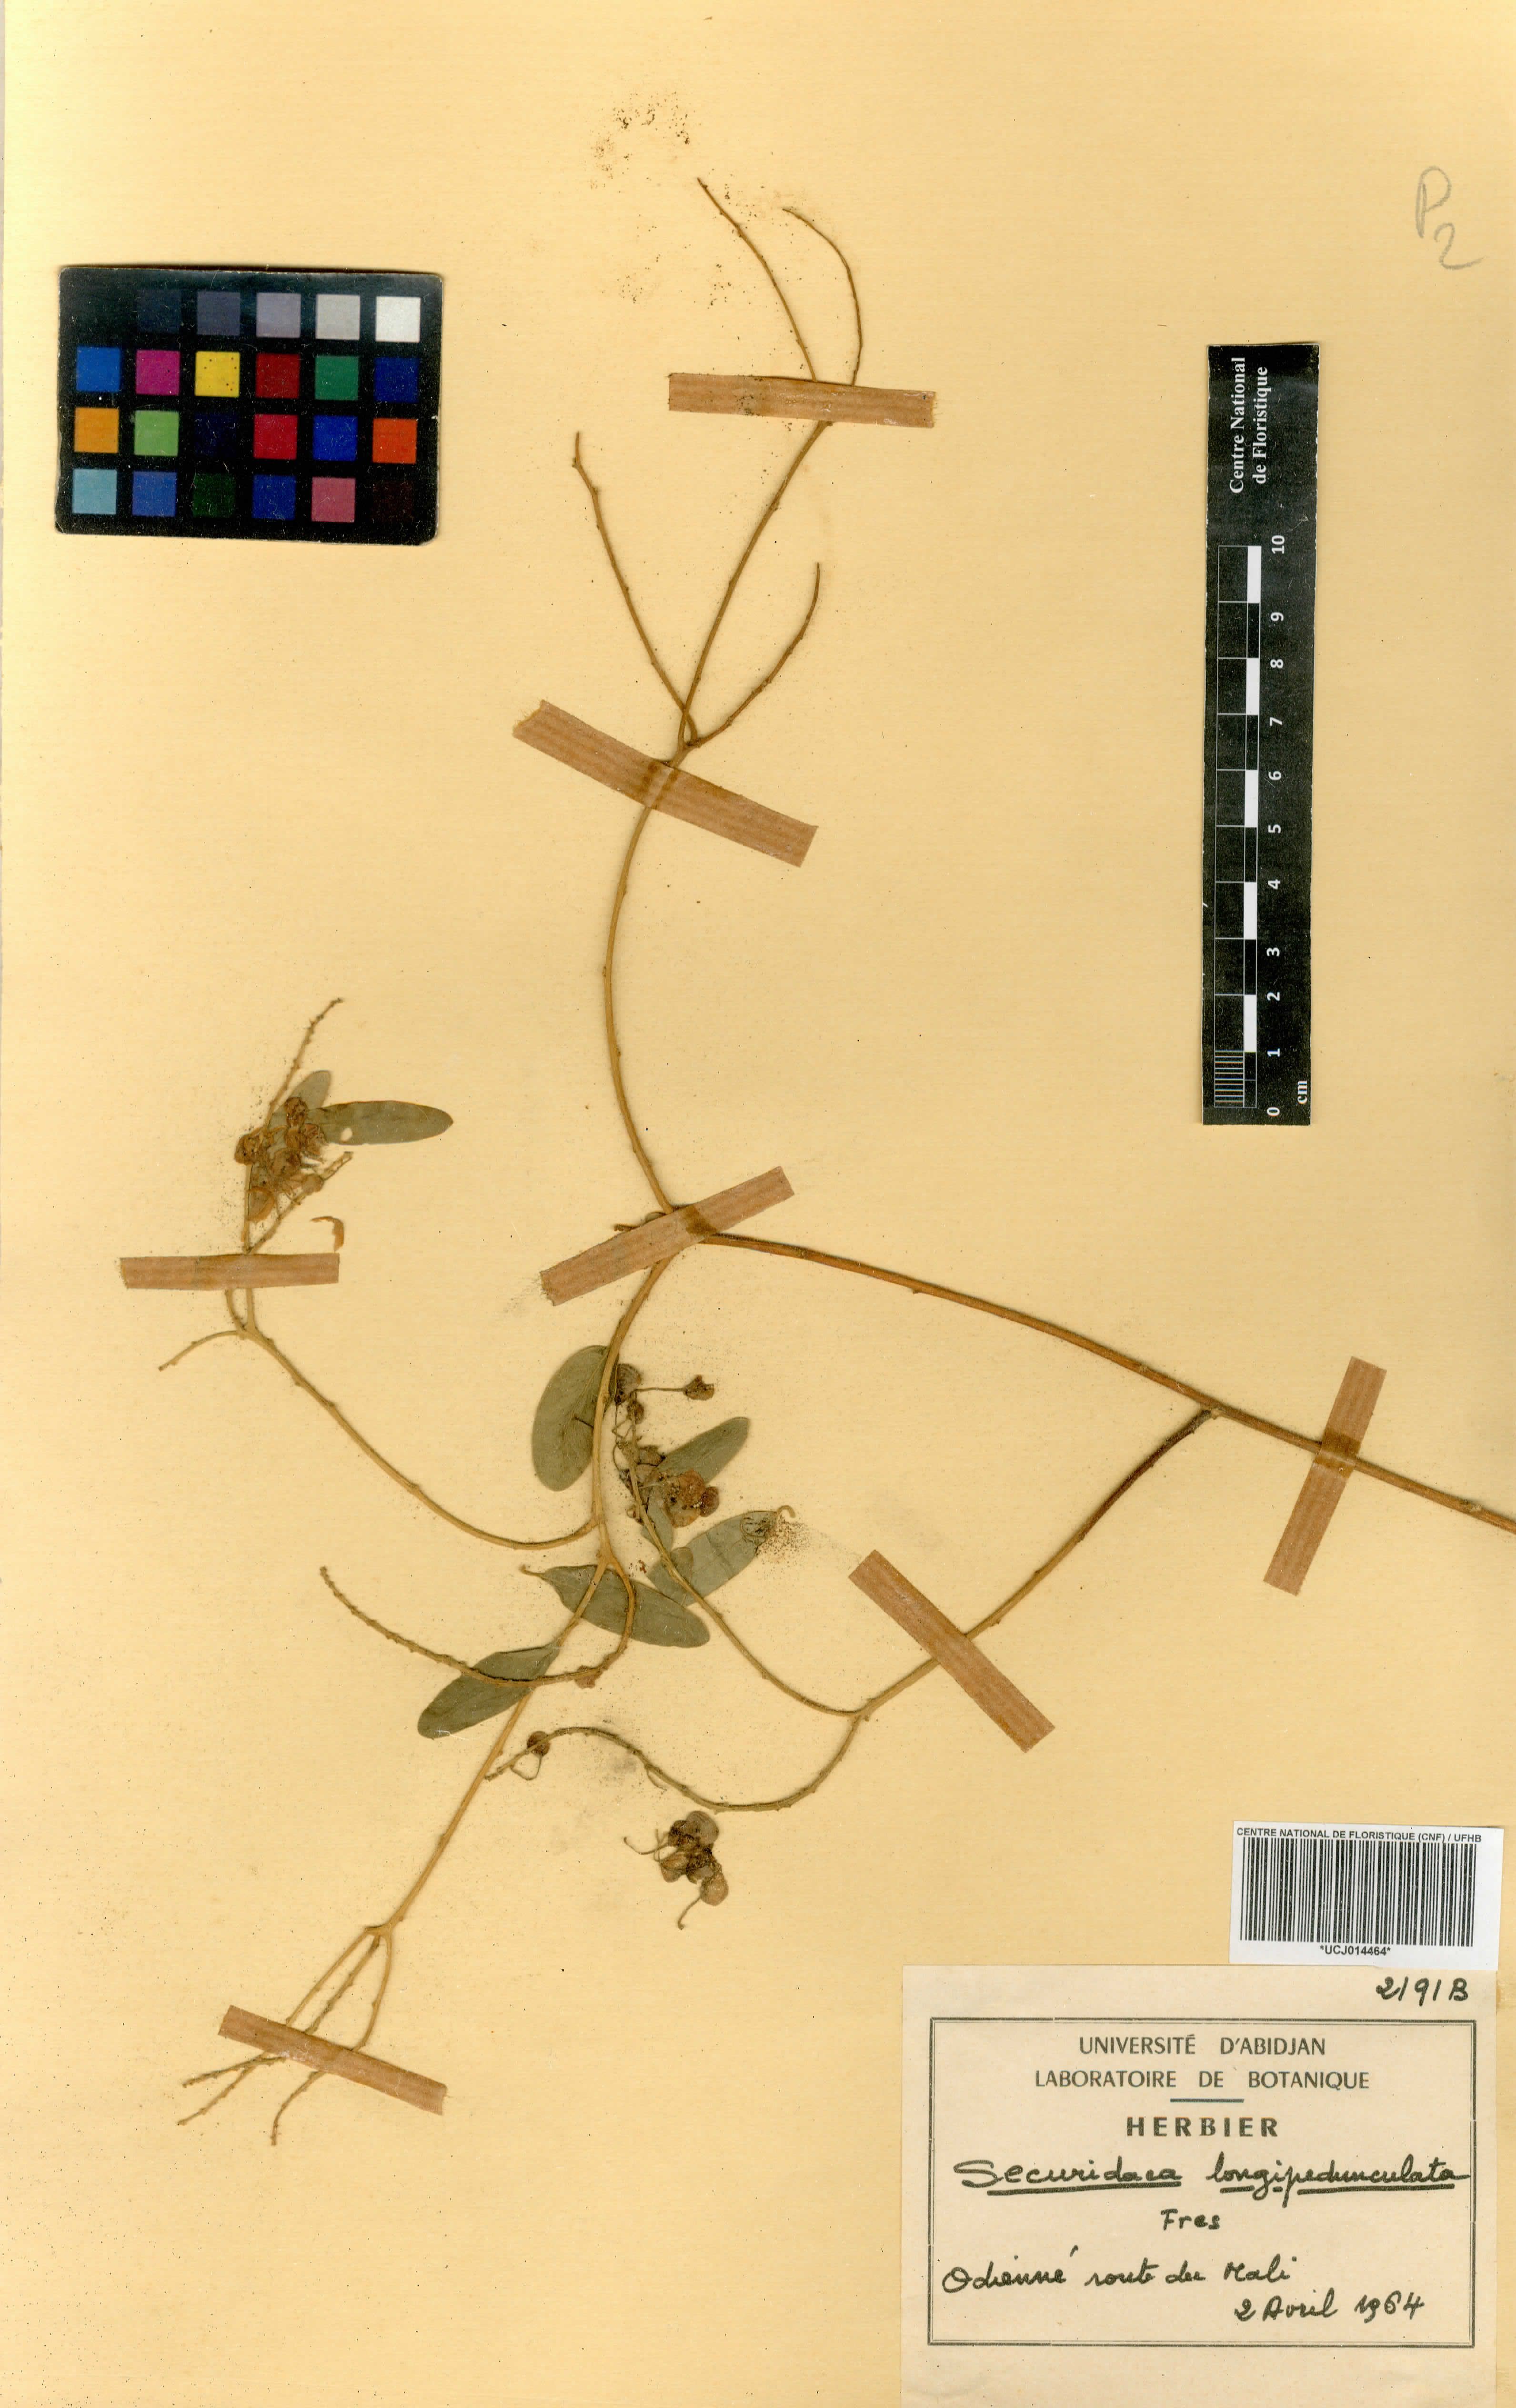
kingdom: Plantae
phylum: Tracheophyta
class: Magnoliopsida
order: Fabales
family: Polygalaceae
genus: Securidaca
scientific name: Securidaca longepedunculata
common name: Violet tree
